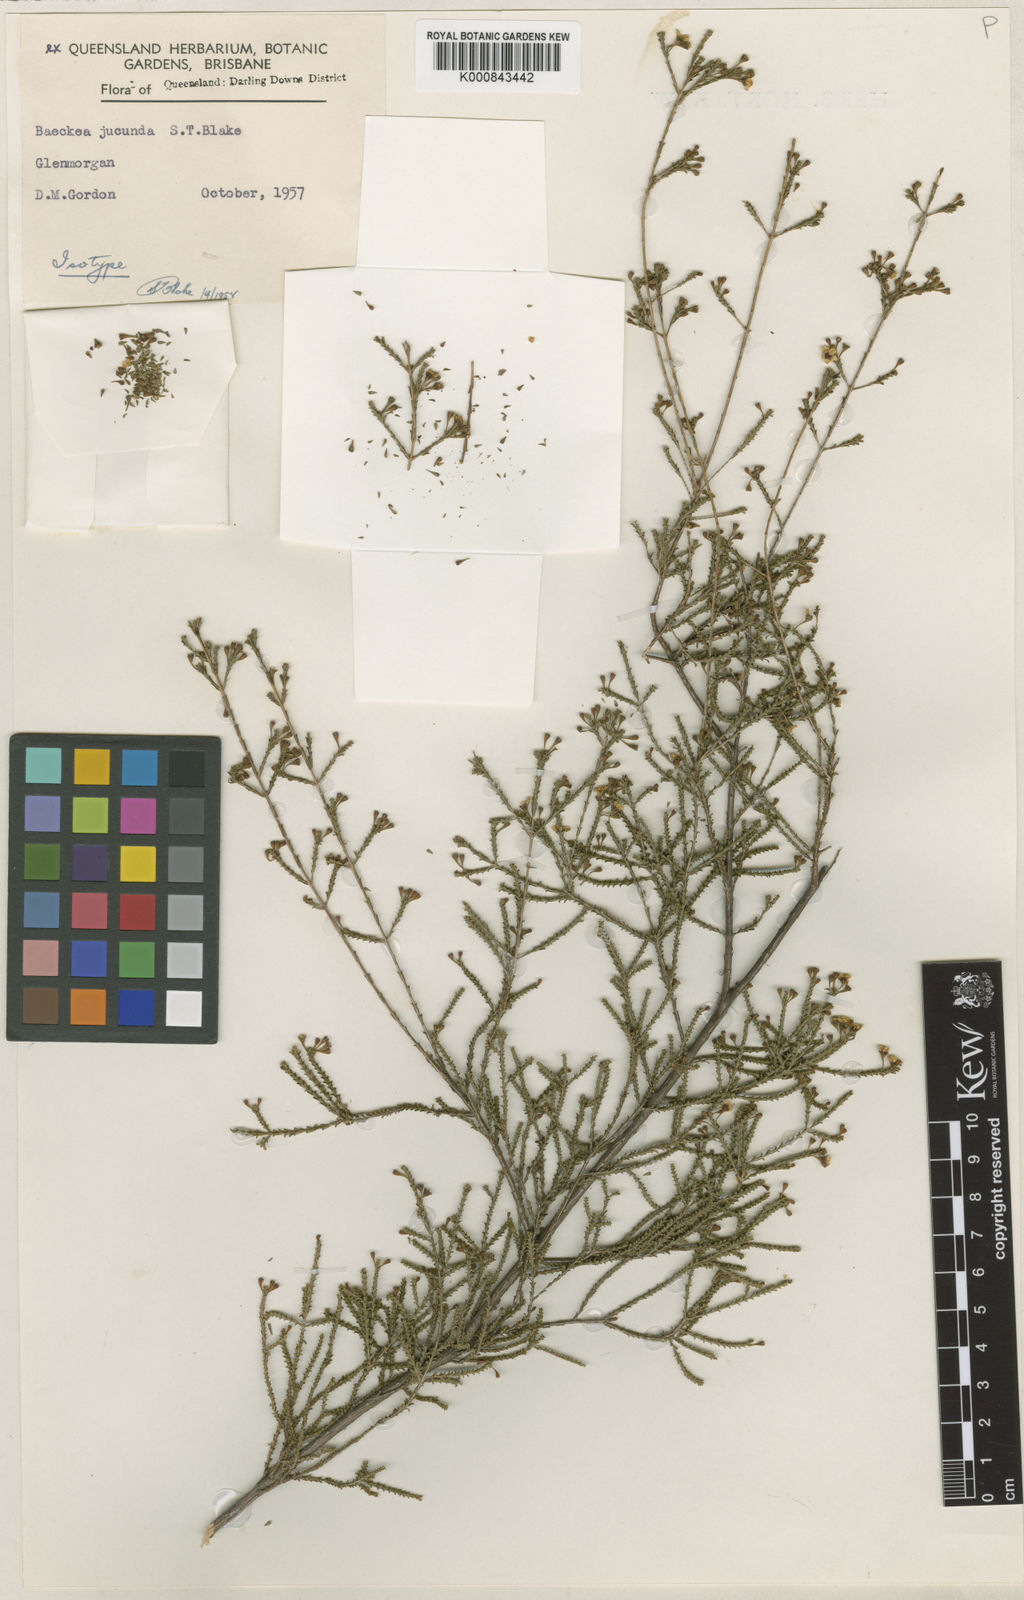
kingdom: Plantae
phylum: Tracheophyta
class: Magnoliopsida
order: Myrtales
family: Myrtaceae
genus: Kardomia
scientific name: Kardomia jucunda
